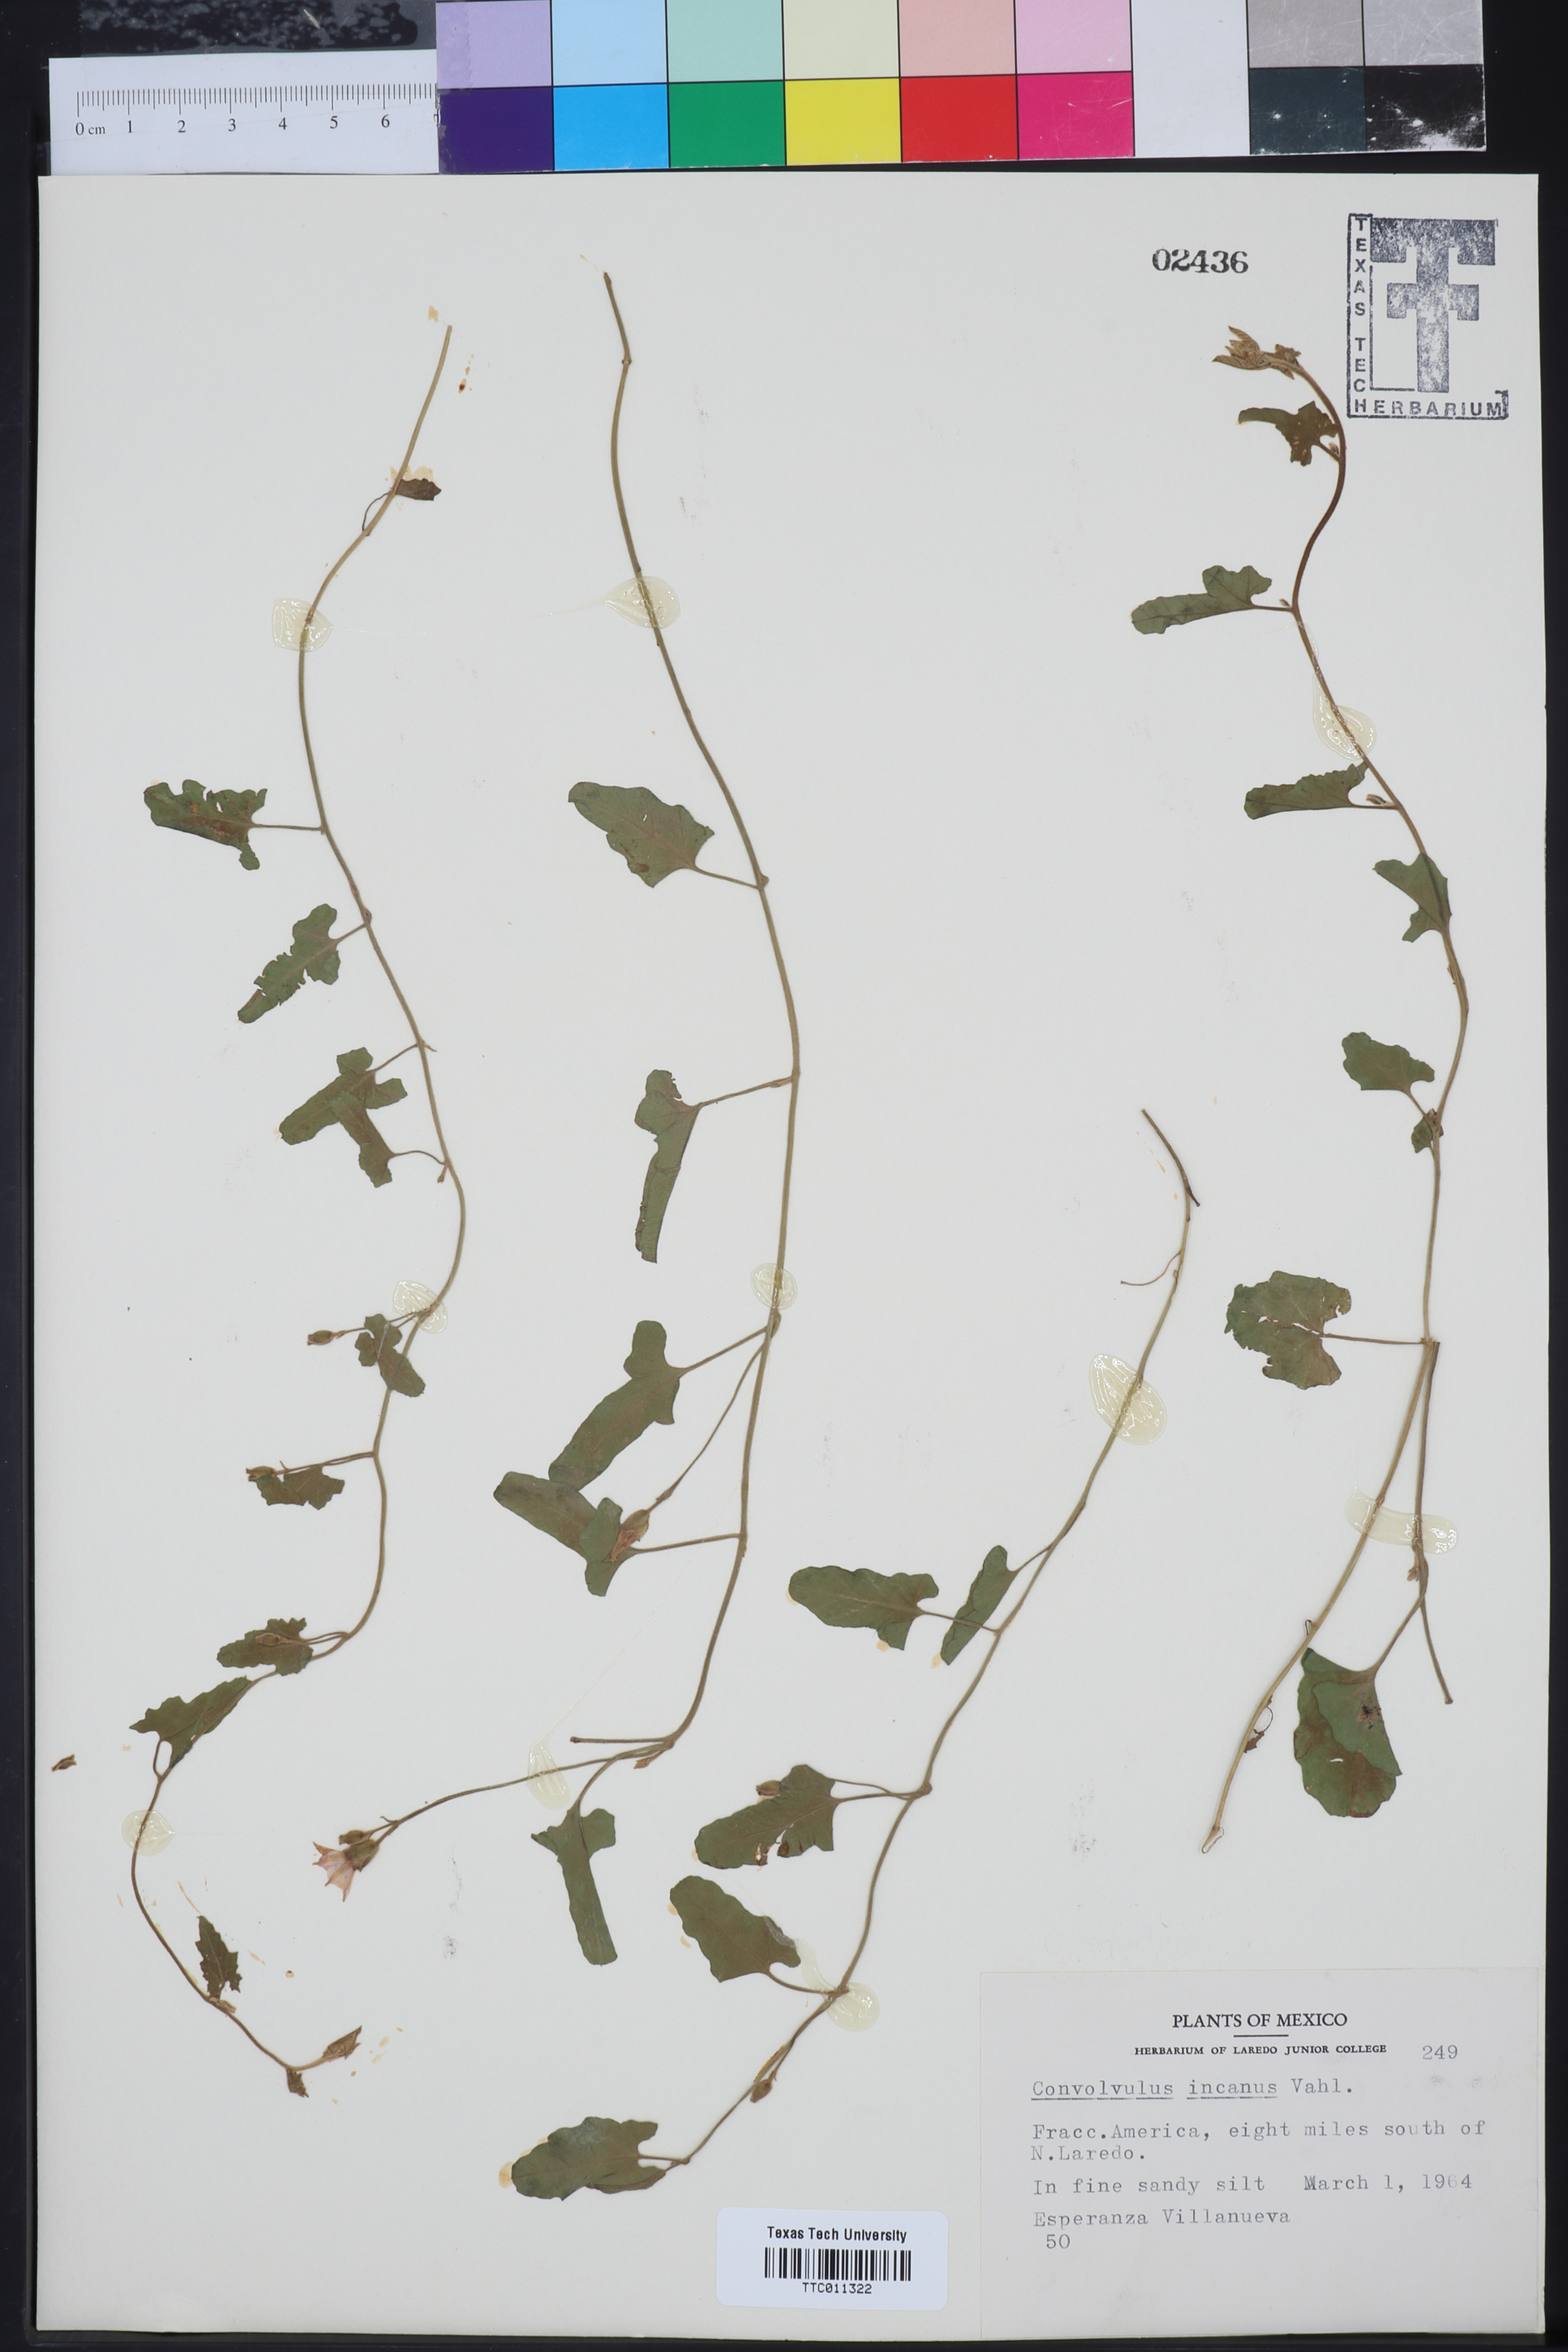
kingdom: Plantae
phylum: Tracheophyta
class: Magnoliopsida
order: Solanales
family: Convolvulaceae
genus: Convolvulus
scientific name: Convolvulus hermanniae
